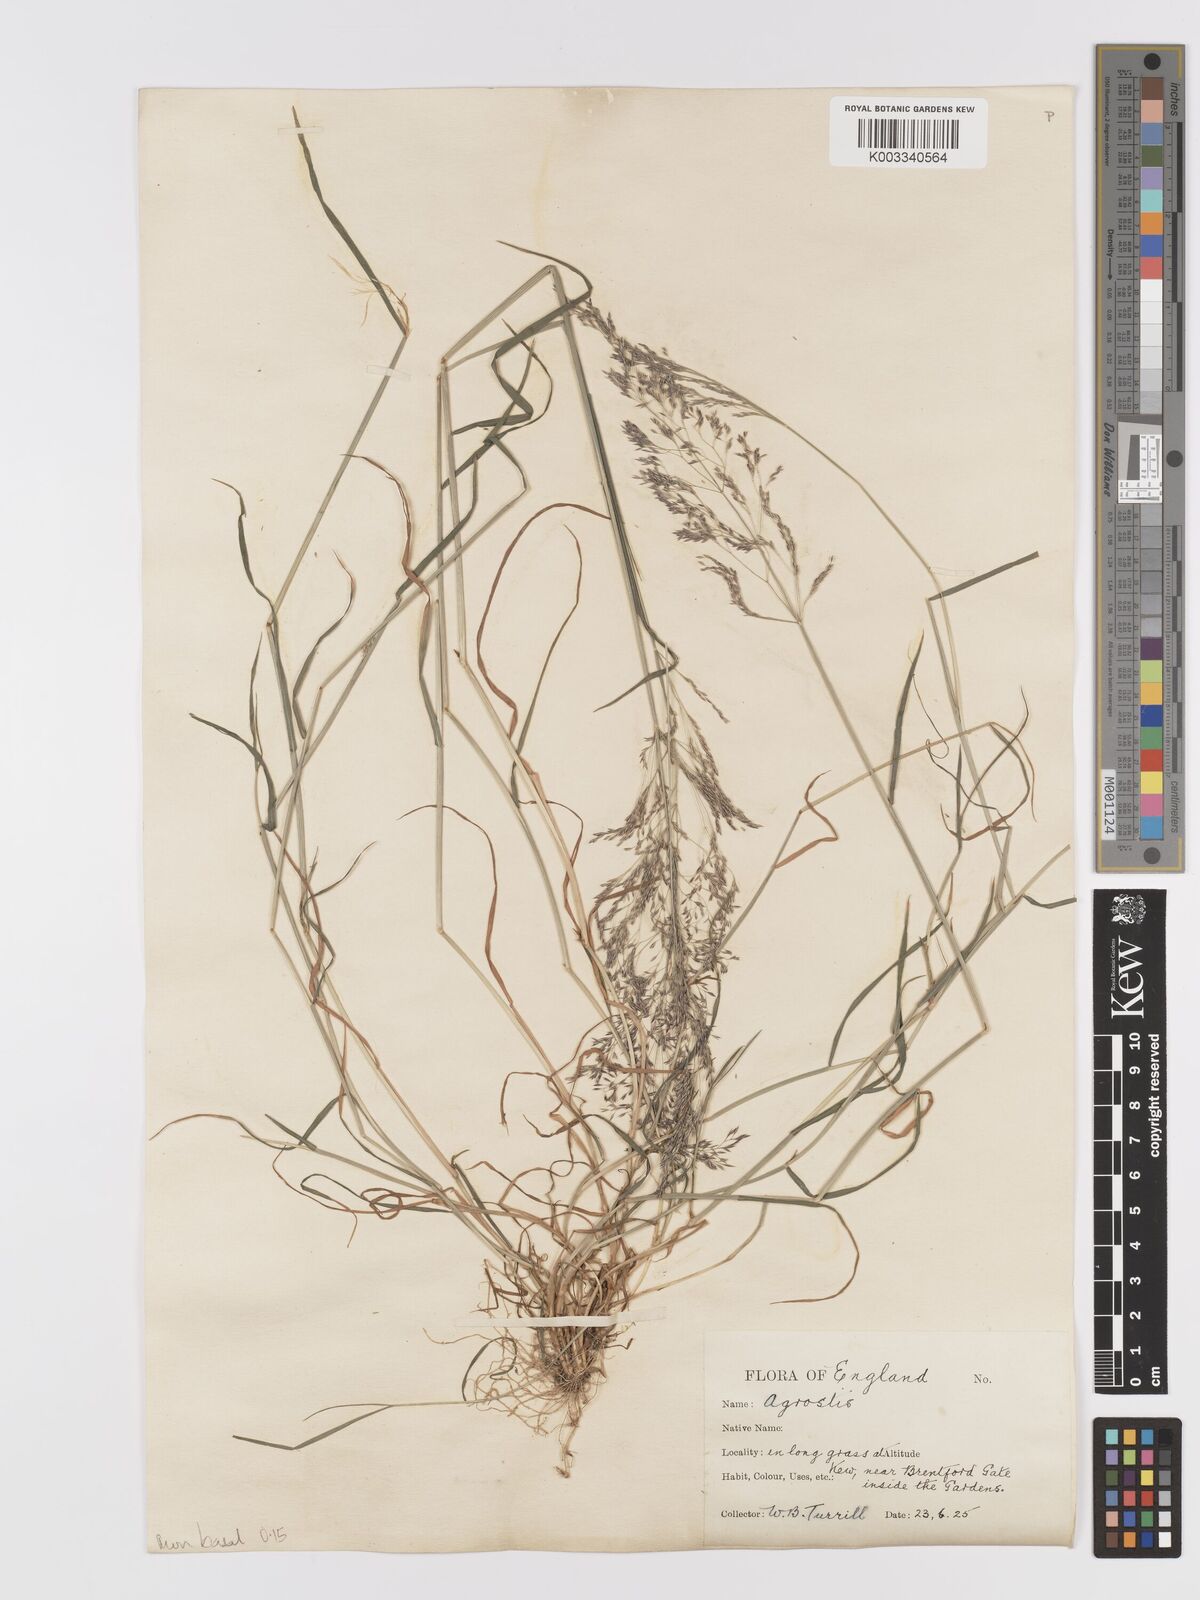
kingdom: Plantae
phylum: Tracheophyta
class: Liliopsida
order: Poales
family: Poaceae
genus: Agrostis
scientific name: Agrostis capillaris
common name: Colonial bentgrass
